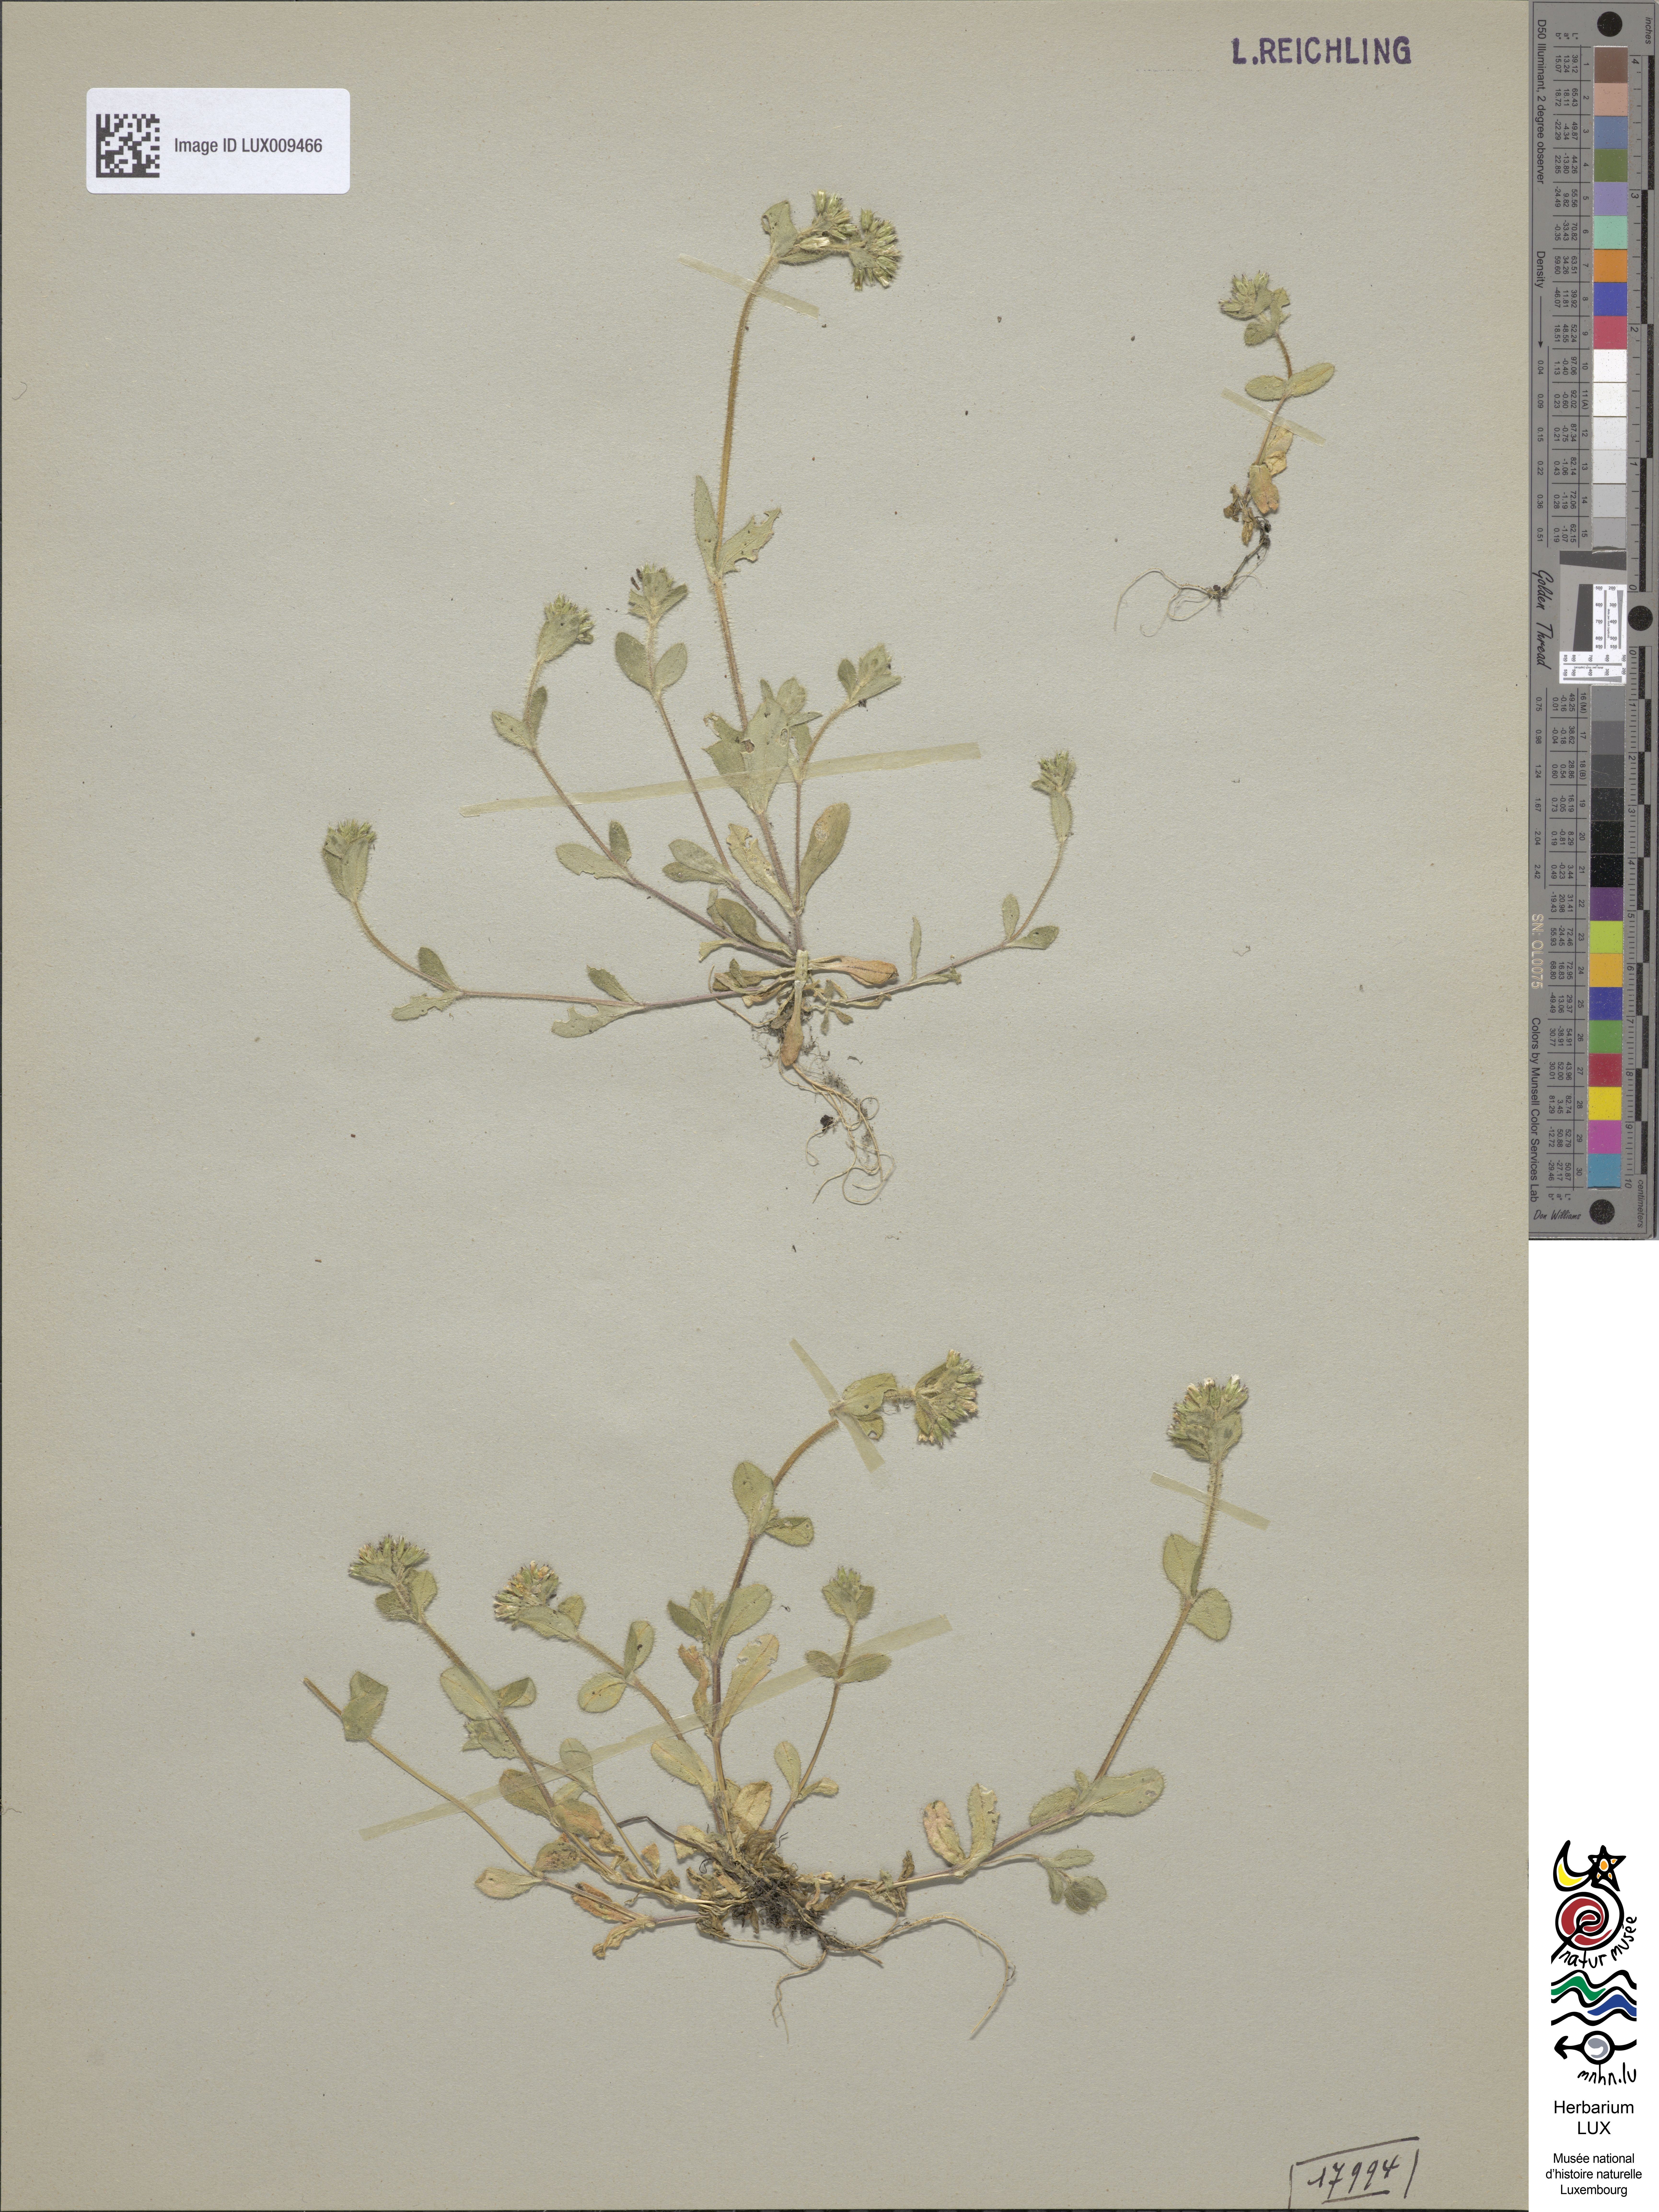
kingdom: Plantae
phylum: Tracheophyta
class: Magnoliopsida
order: Caryophyllales
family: Caryophyllaceae
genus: Cerastium
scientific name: Cerastium glomeratum
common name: Sticky chickweed
